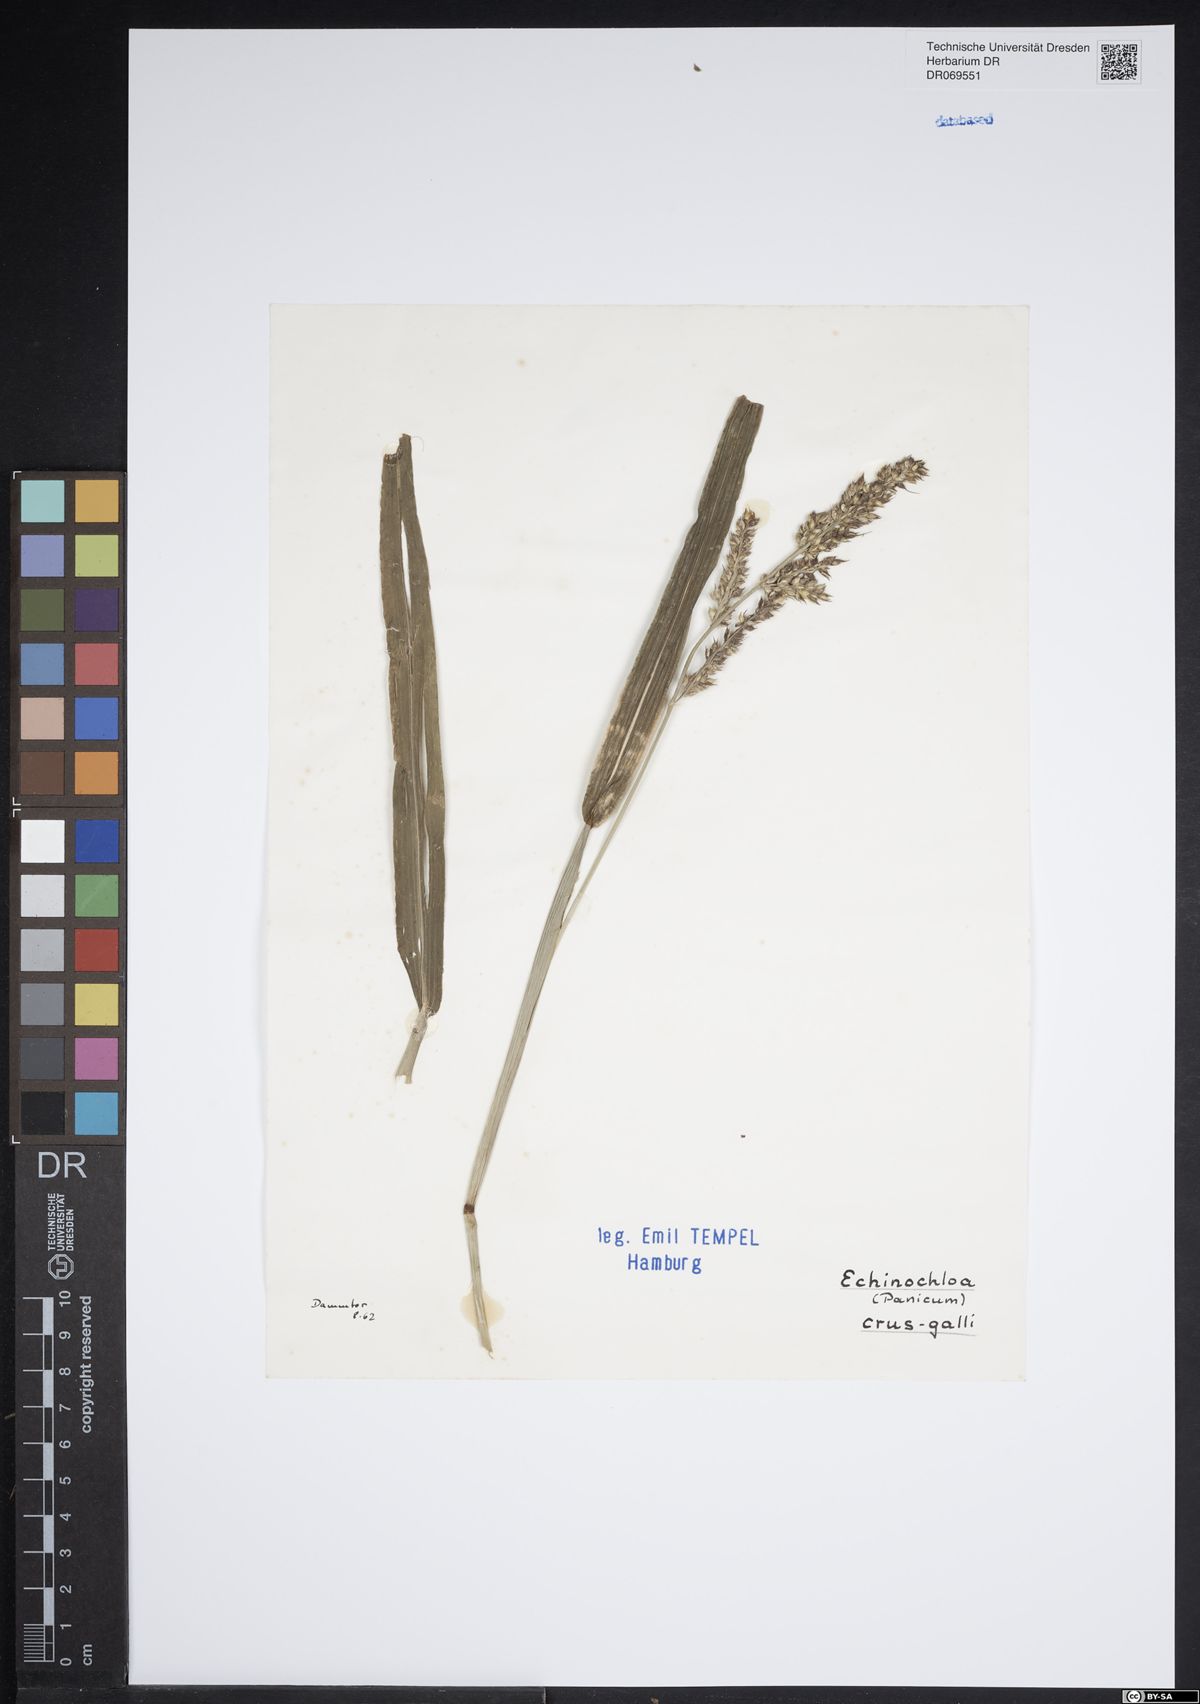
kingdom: Plantae
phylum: Tracheophyta
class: Liliopsida
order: Poales
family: Poaceae
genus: Echinochloa
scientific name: Echinochloa crus-galli
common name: Cockspur
